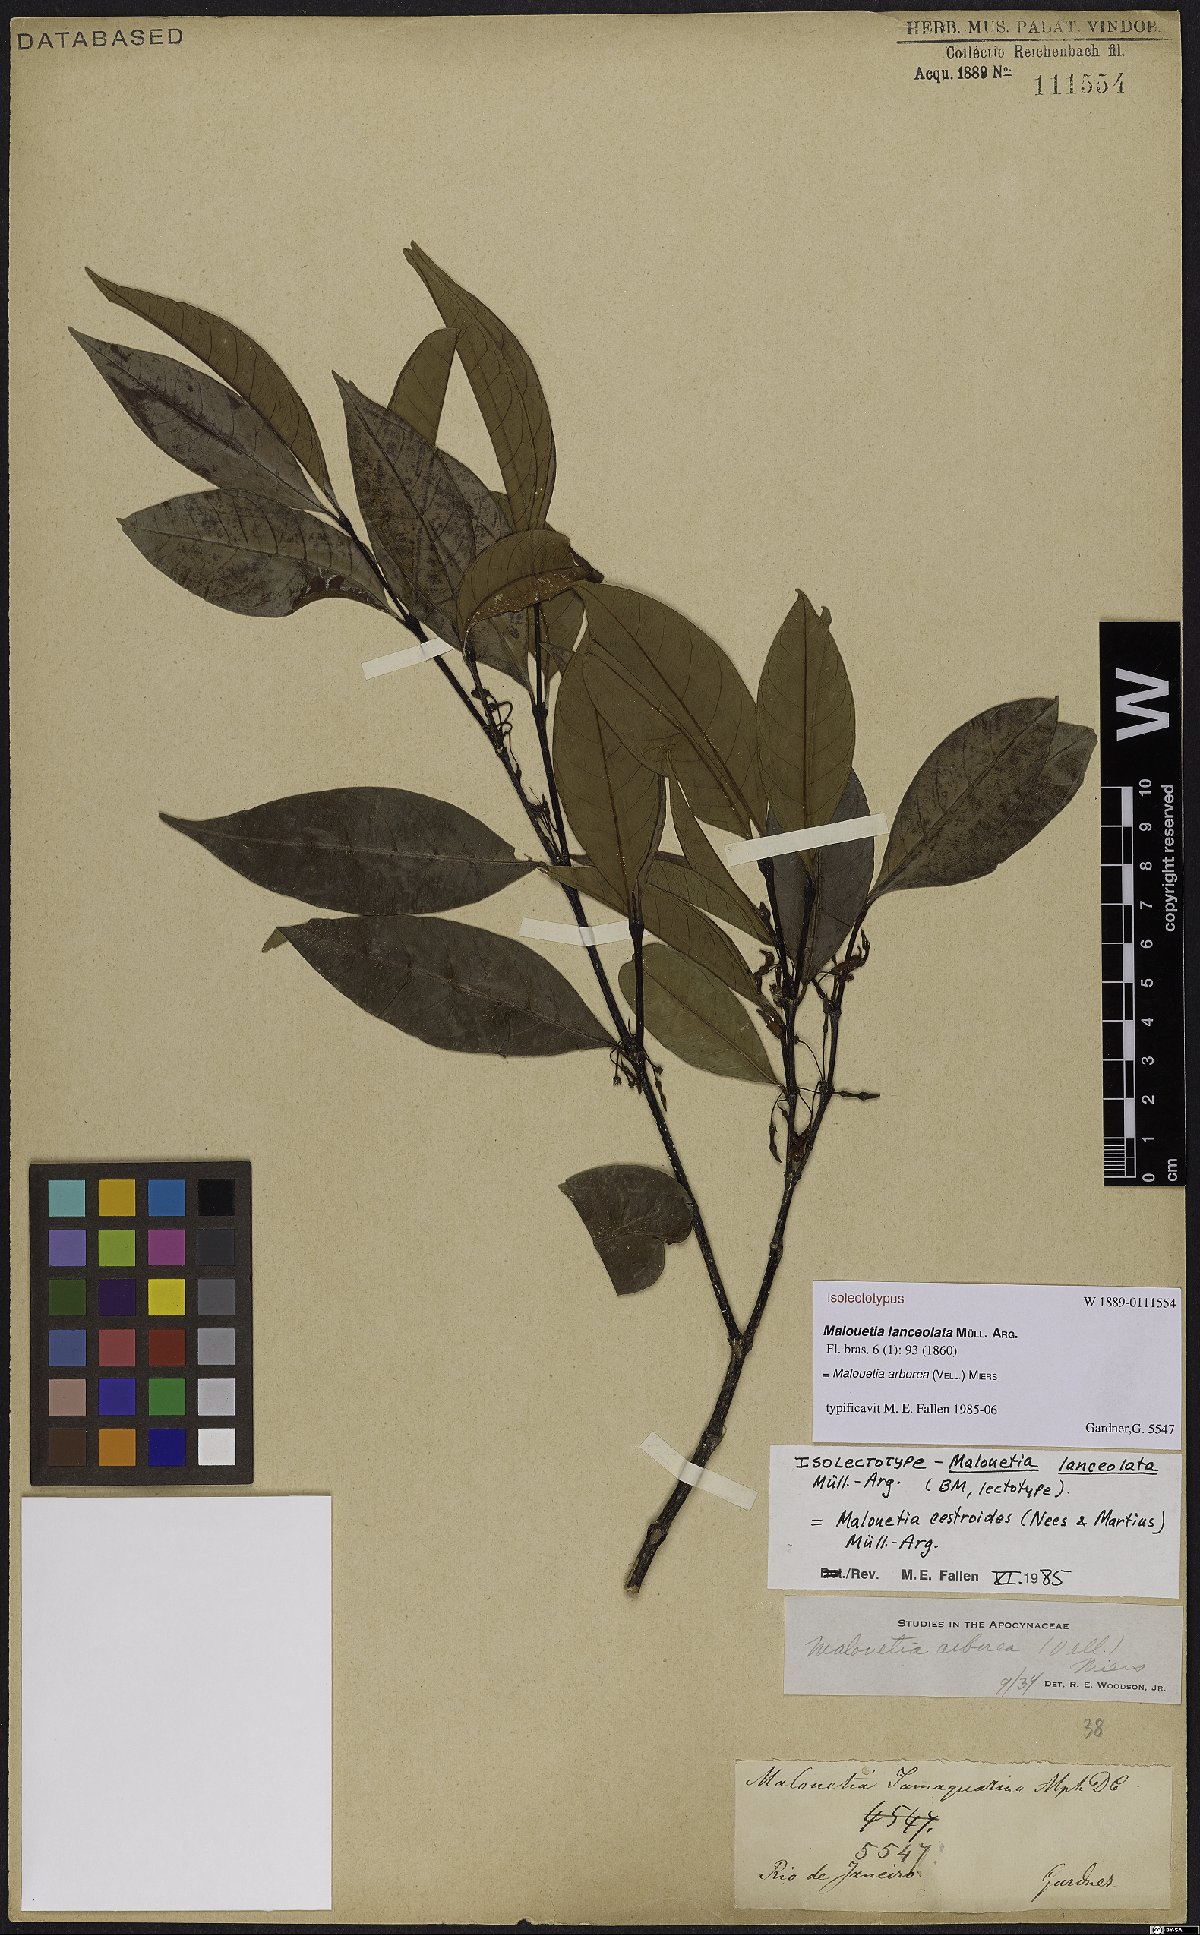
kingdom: Plantae
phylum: Tracheophyta
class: Magnoliopsida
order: Gentianales
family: Apocynaceae
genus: Malouetia
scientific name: Malouetia cestroides
